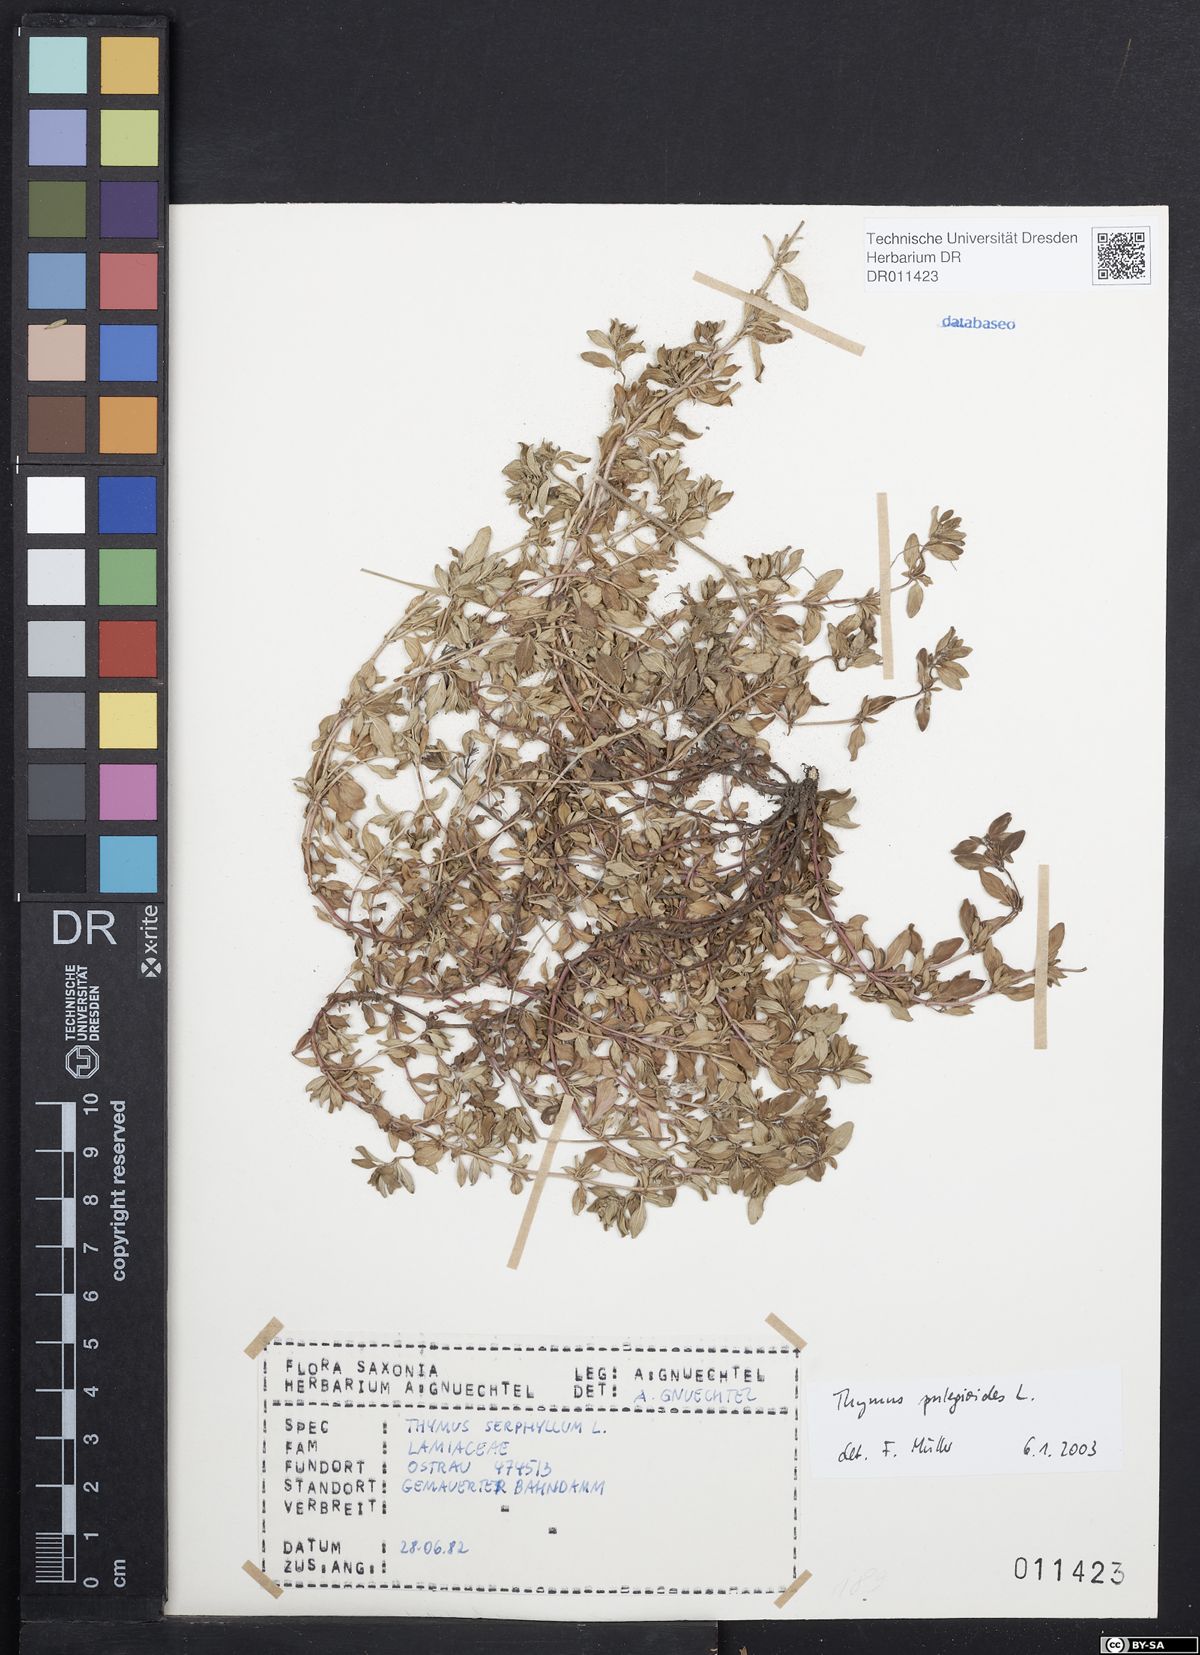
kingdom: Plantae
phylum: Tracheophyta
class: Magnoliopsida
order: Lamiales
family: Lamiaceae
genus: Thymus
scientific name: Thymus pulegioides
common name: Large thyme
